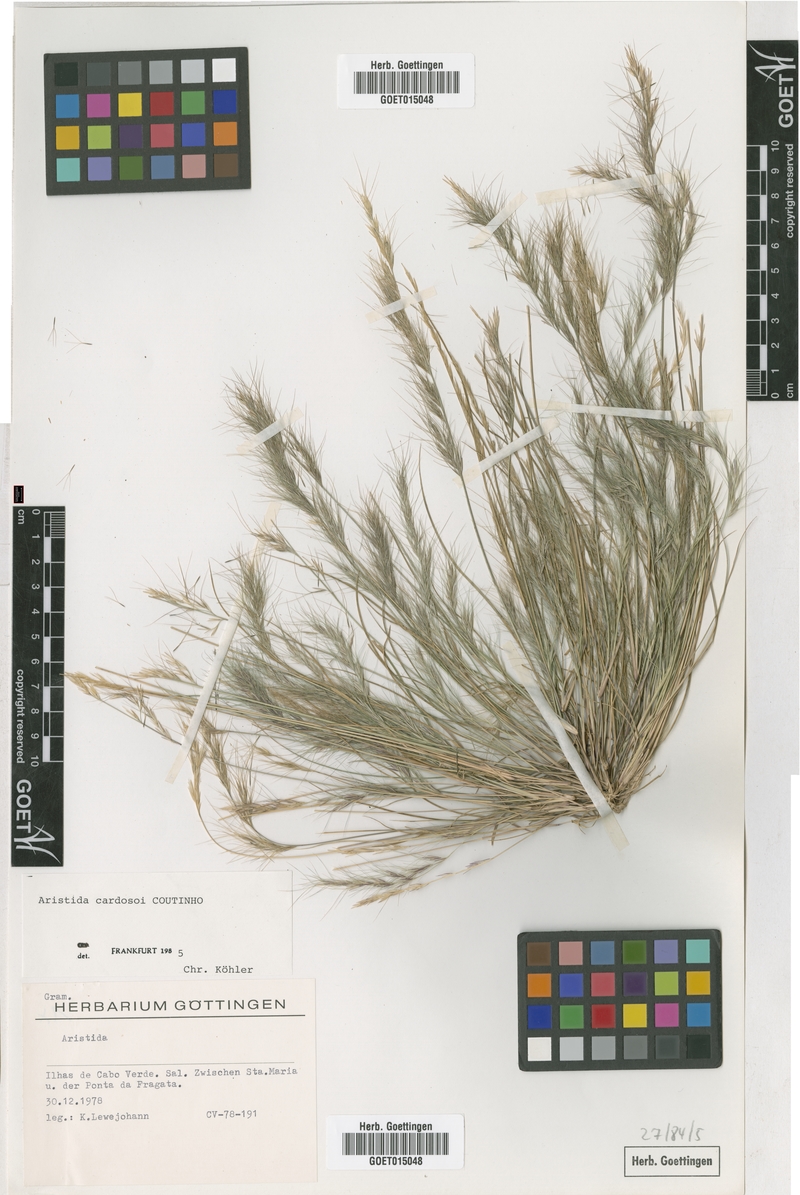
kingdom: Plantae
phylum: Tracheophyta
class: Liliopsida
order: Poales
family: Poaceae
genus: Aristida
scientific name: Aristida adscensionis
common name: Sixweeks threeawn
